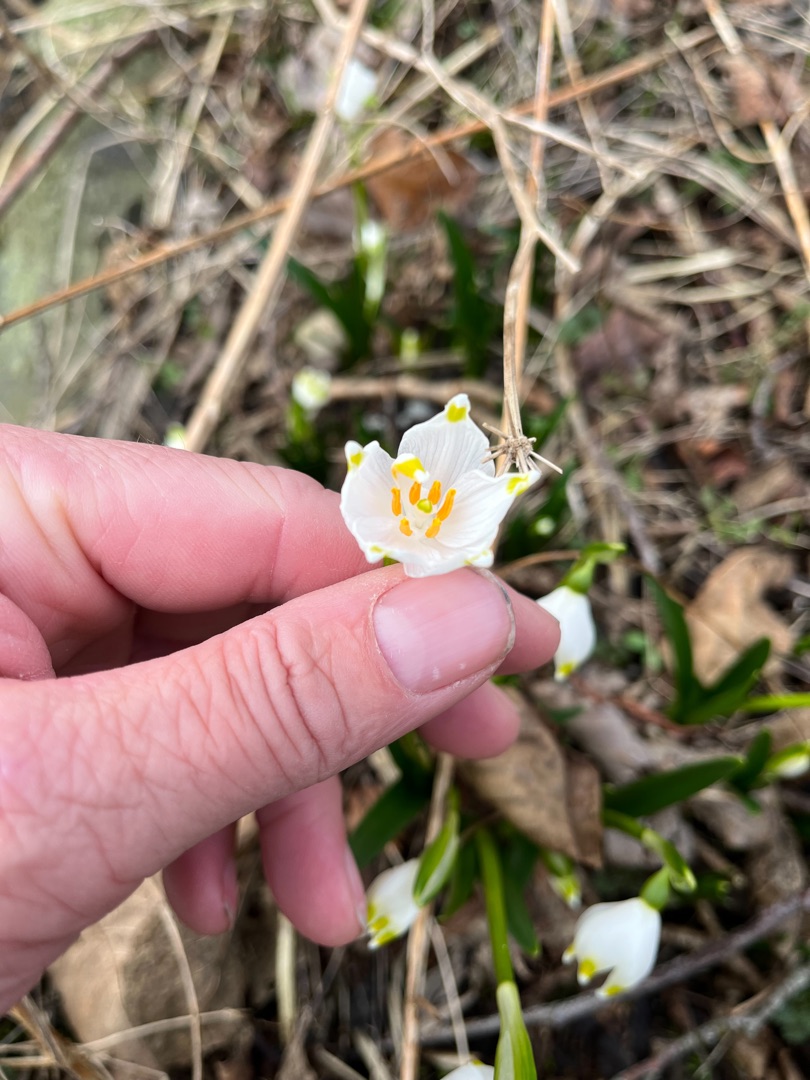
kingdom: Plantae
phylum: Tracheophyta
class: Liliopsida
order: Asparagales
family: Amaryllidaceae
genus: Leucojum
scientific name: Leucojum vernum
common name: Dorthealilje
